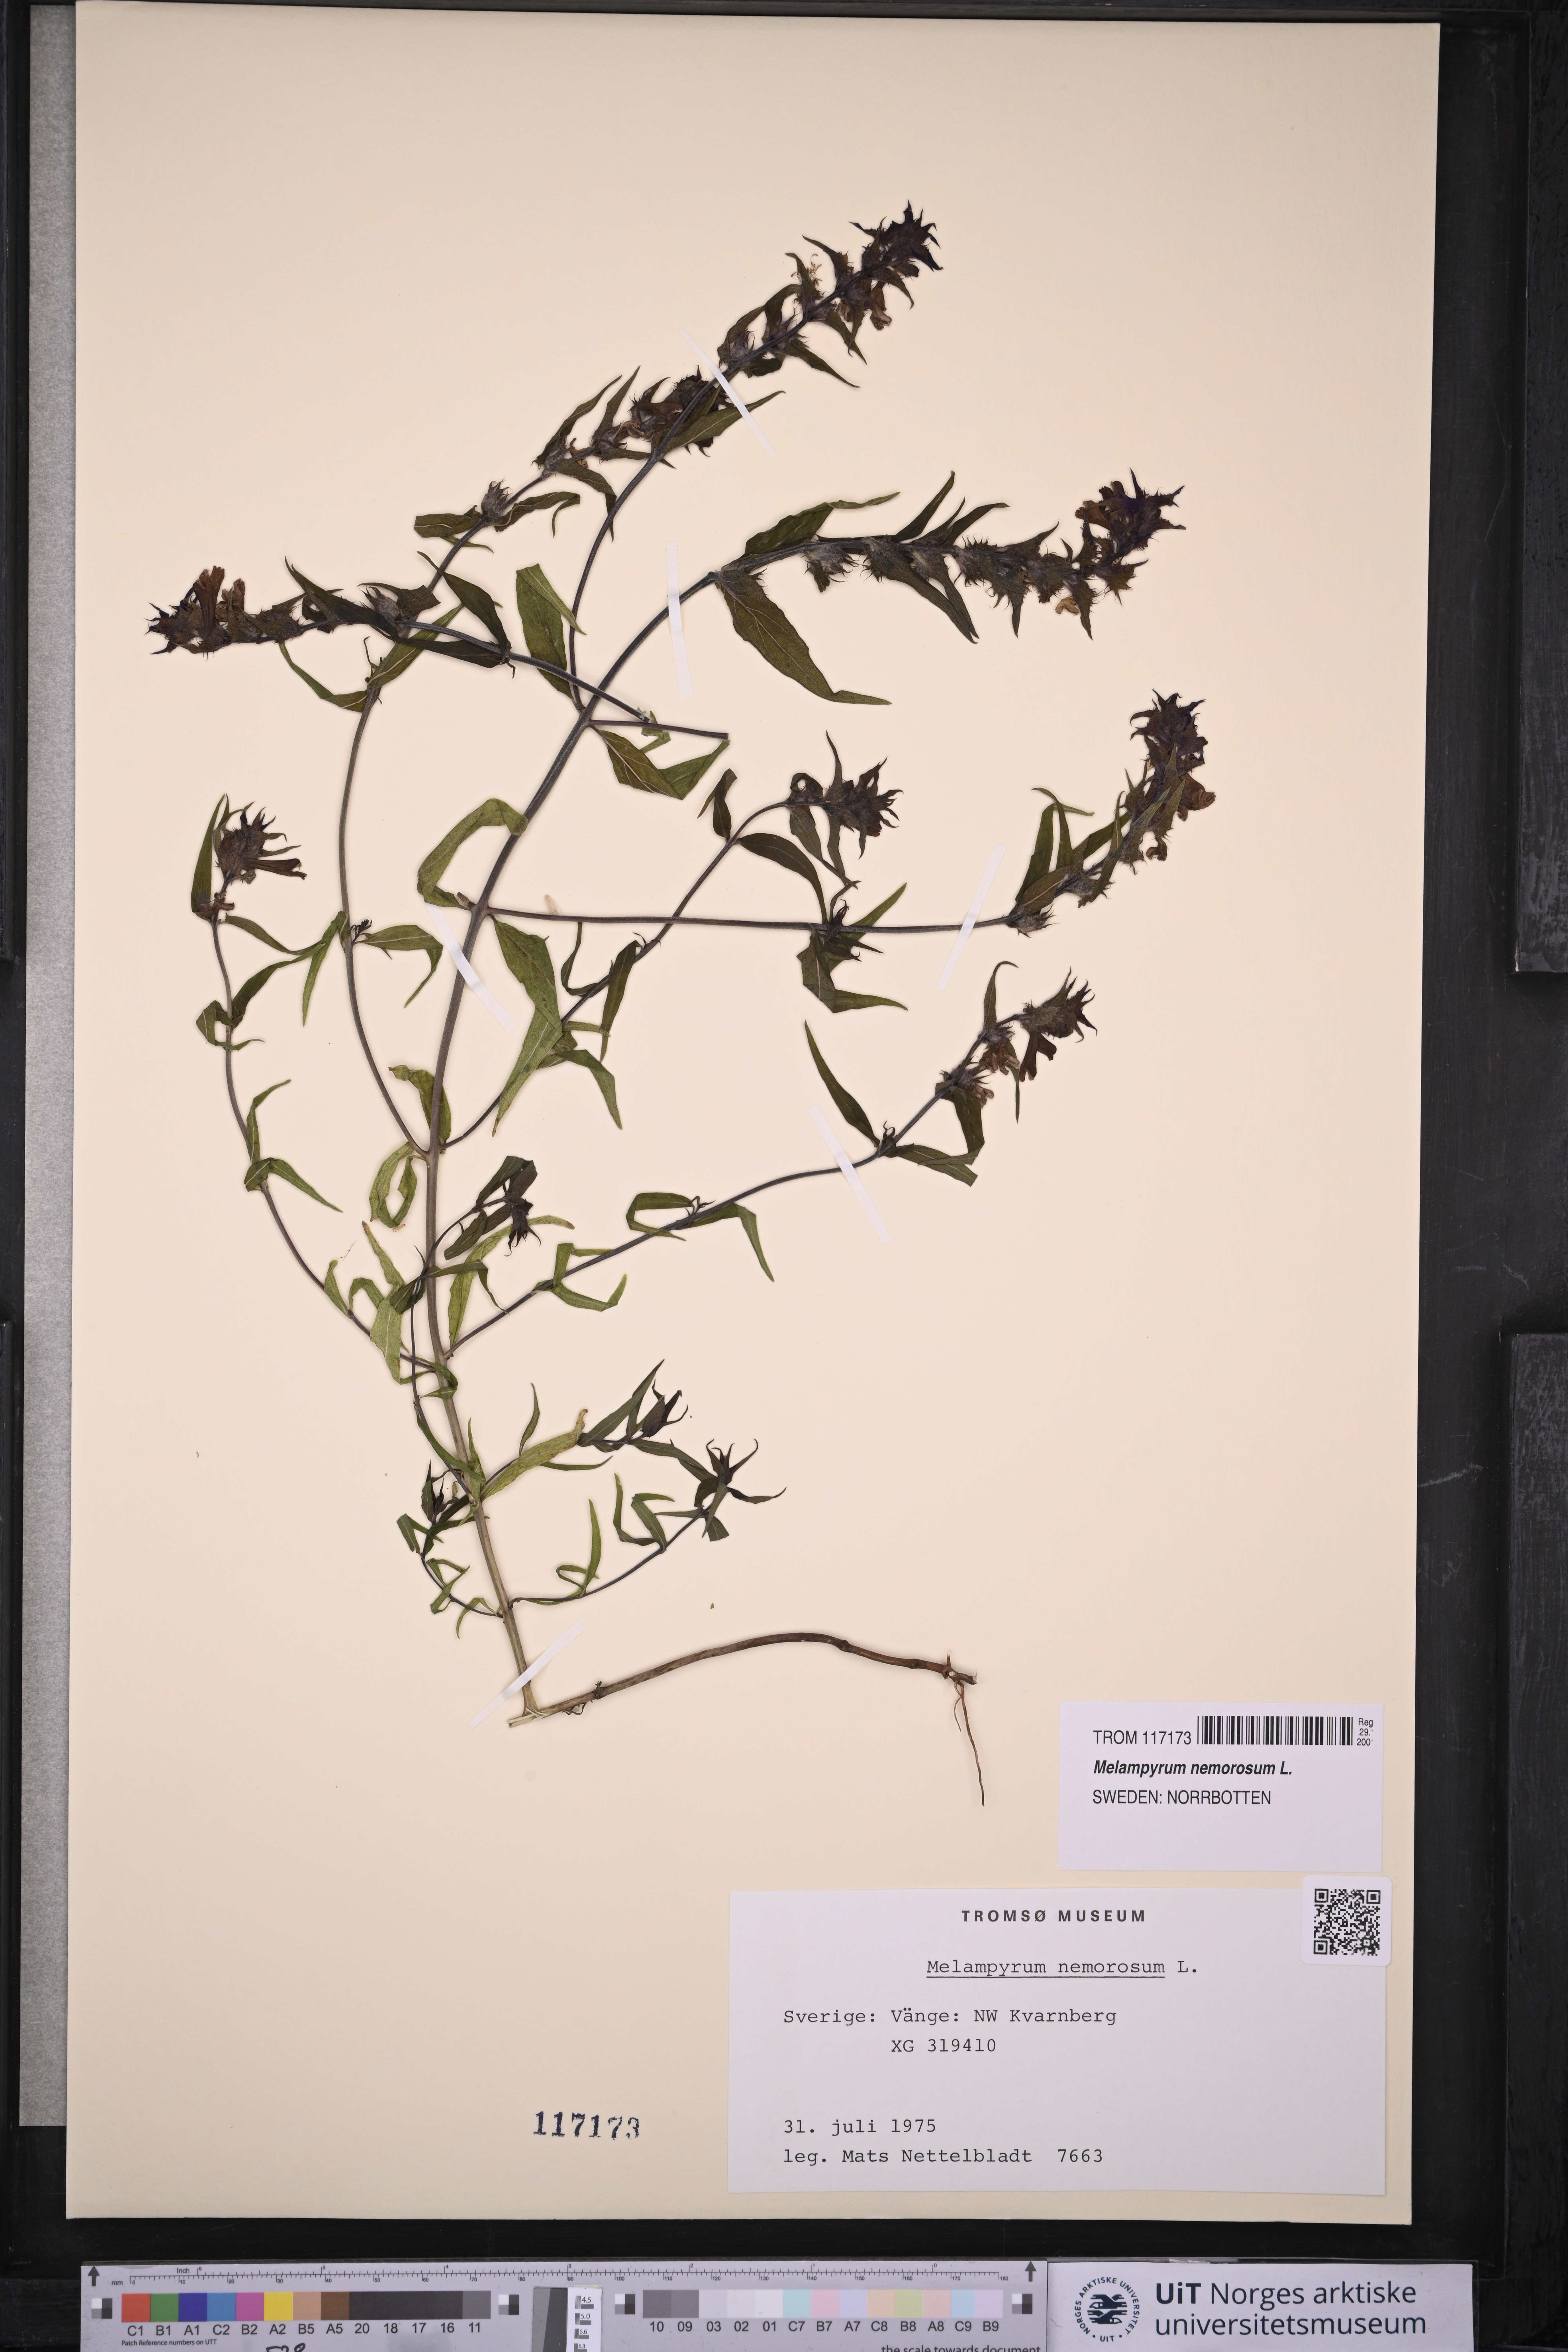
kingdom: Plantae
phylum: Tracheophyta
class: Magnoliopsida
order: Lamiales
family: Orobanchaceae
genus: Melampyrum
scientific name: Melampyrum nemorosum
